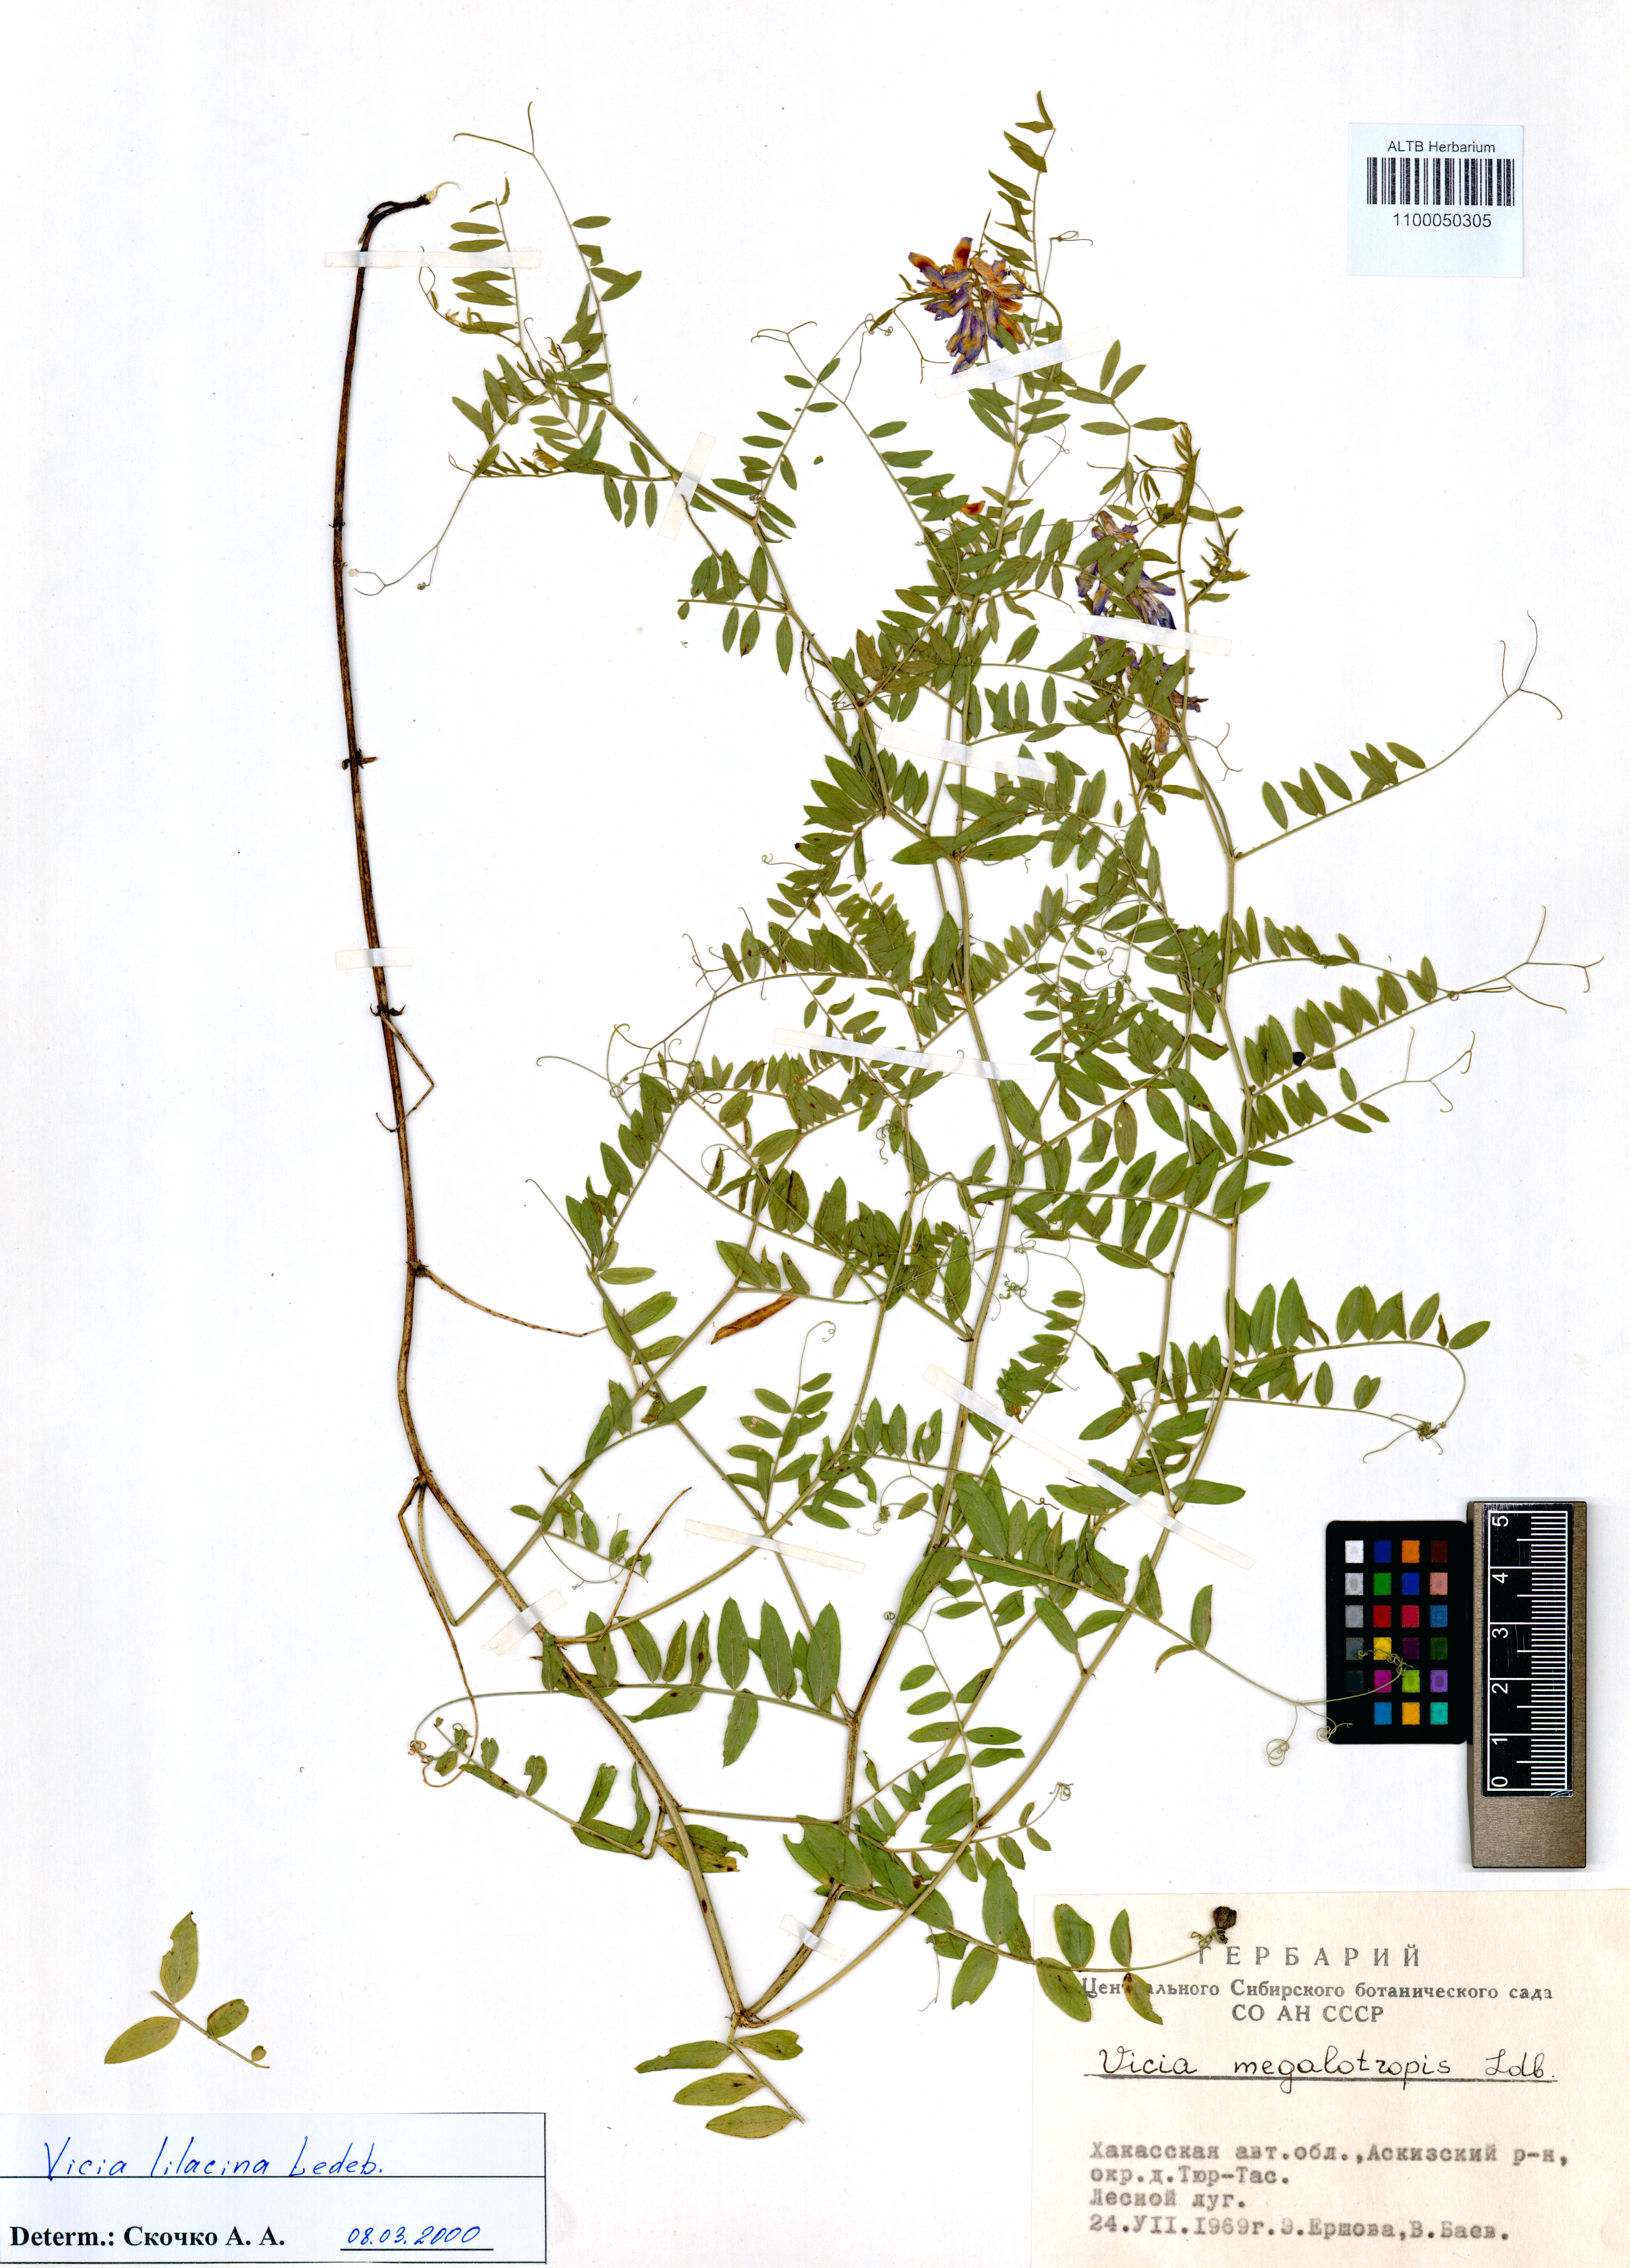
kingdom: Plantae
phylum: Tracheophyta
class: Magnoliopsida
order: Fabales
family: Fabaceae
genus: Vicia
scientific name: Vicia megalotropis
